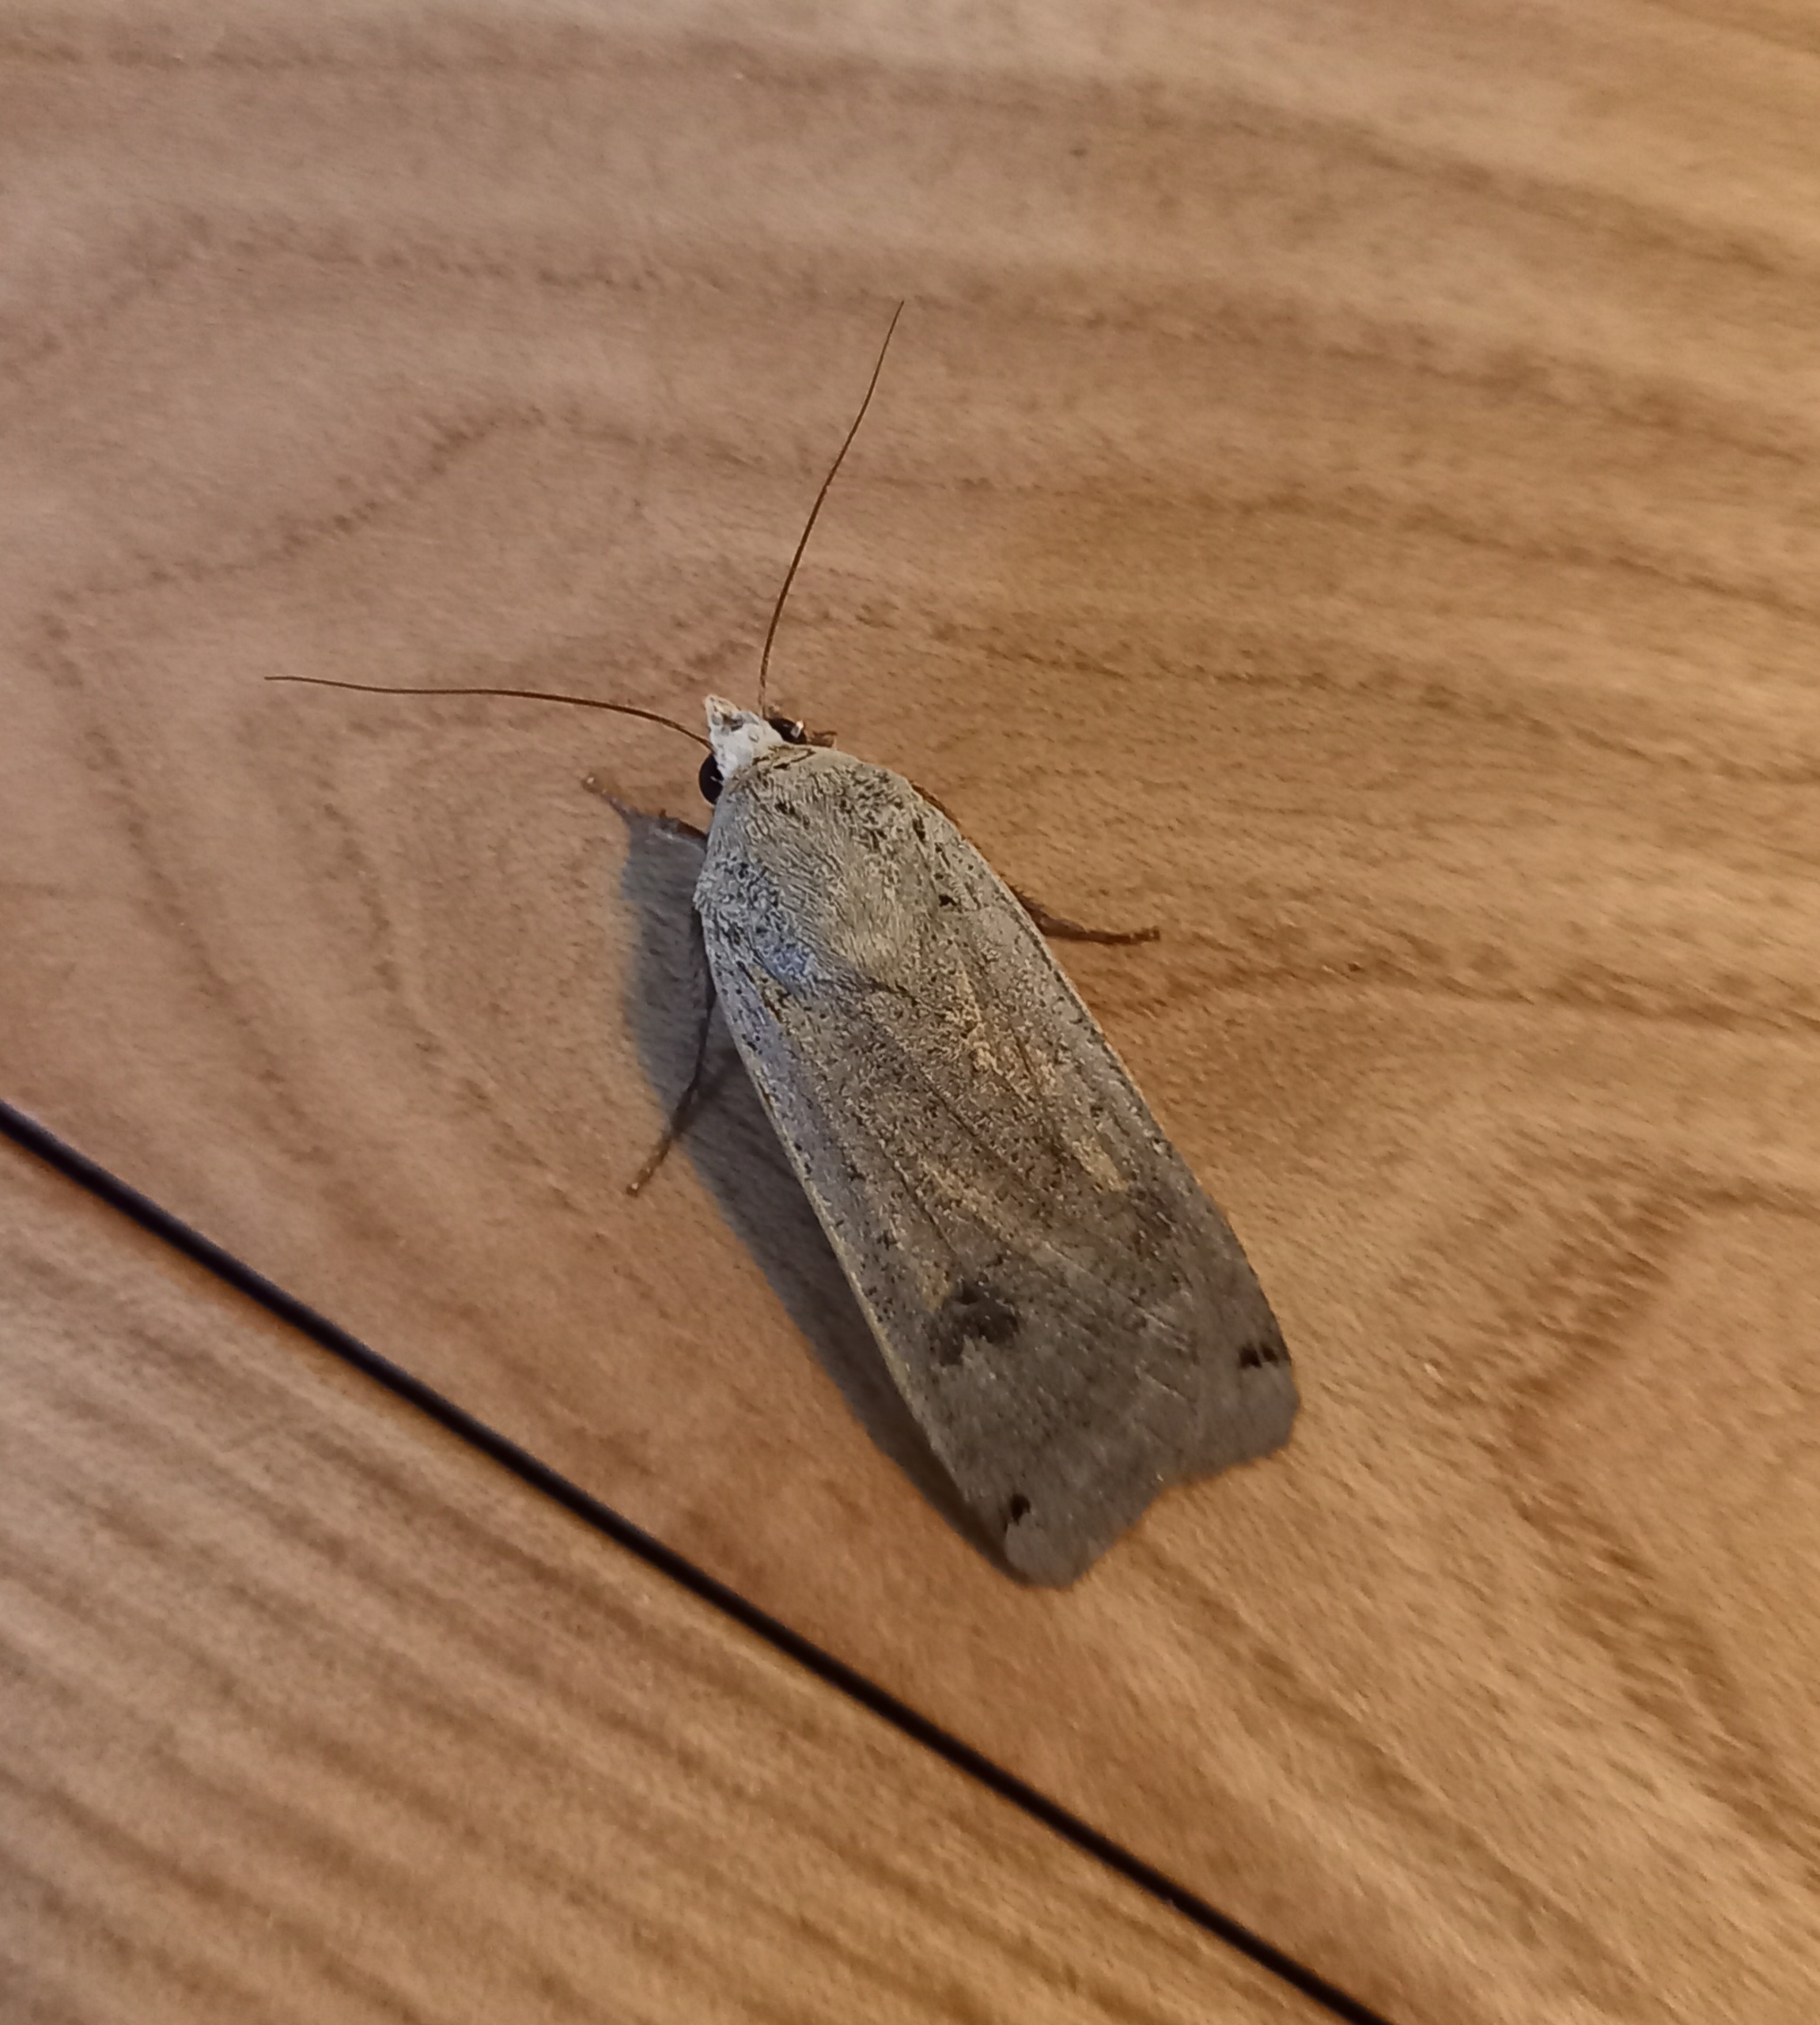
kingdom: Animalia
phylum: Arthropoda
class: Insecta
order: Lepidoptera
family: Noctuidae
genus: Noctua
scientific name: Noctua pronuba
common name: Stor smutugle
